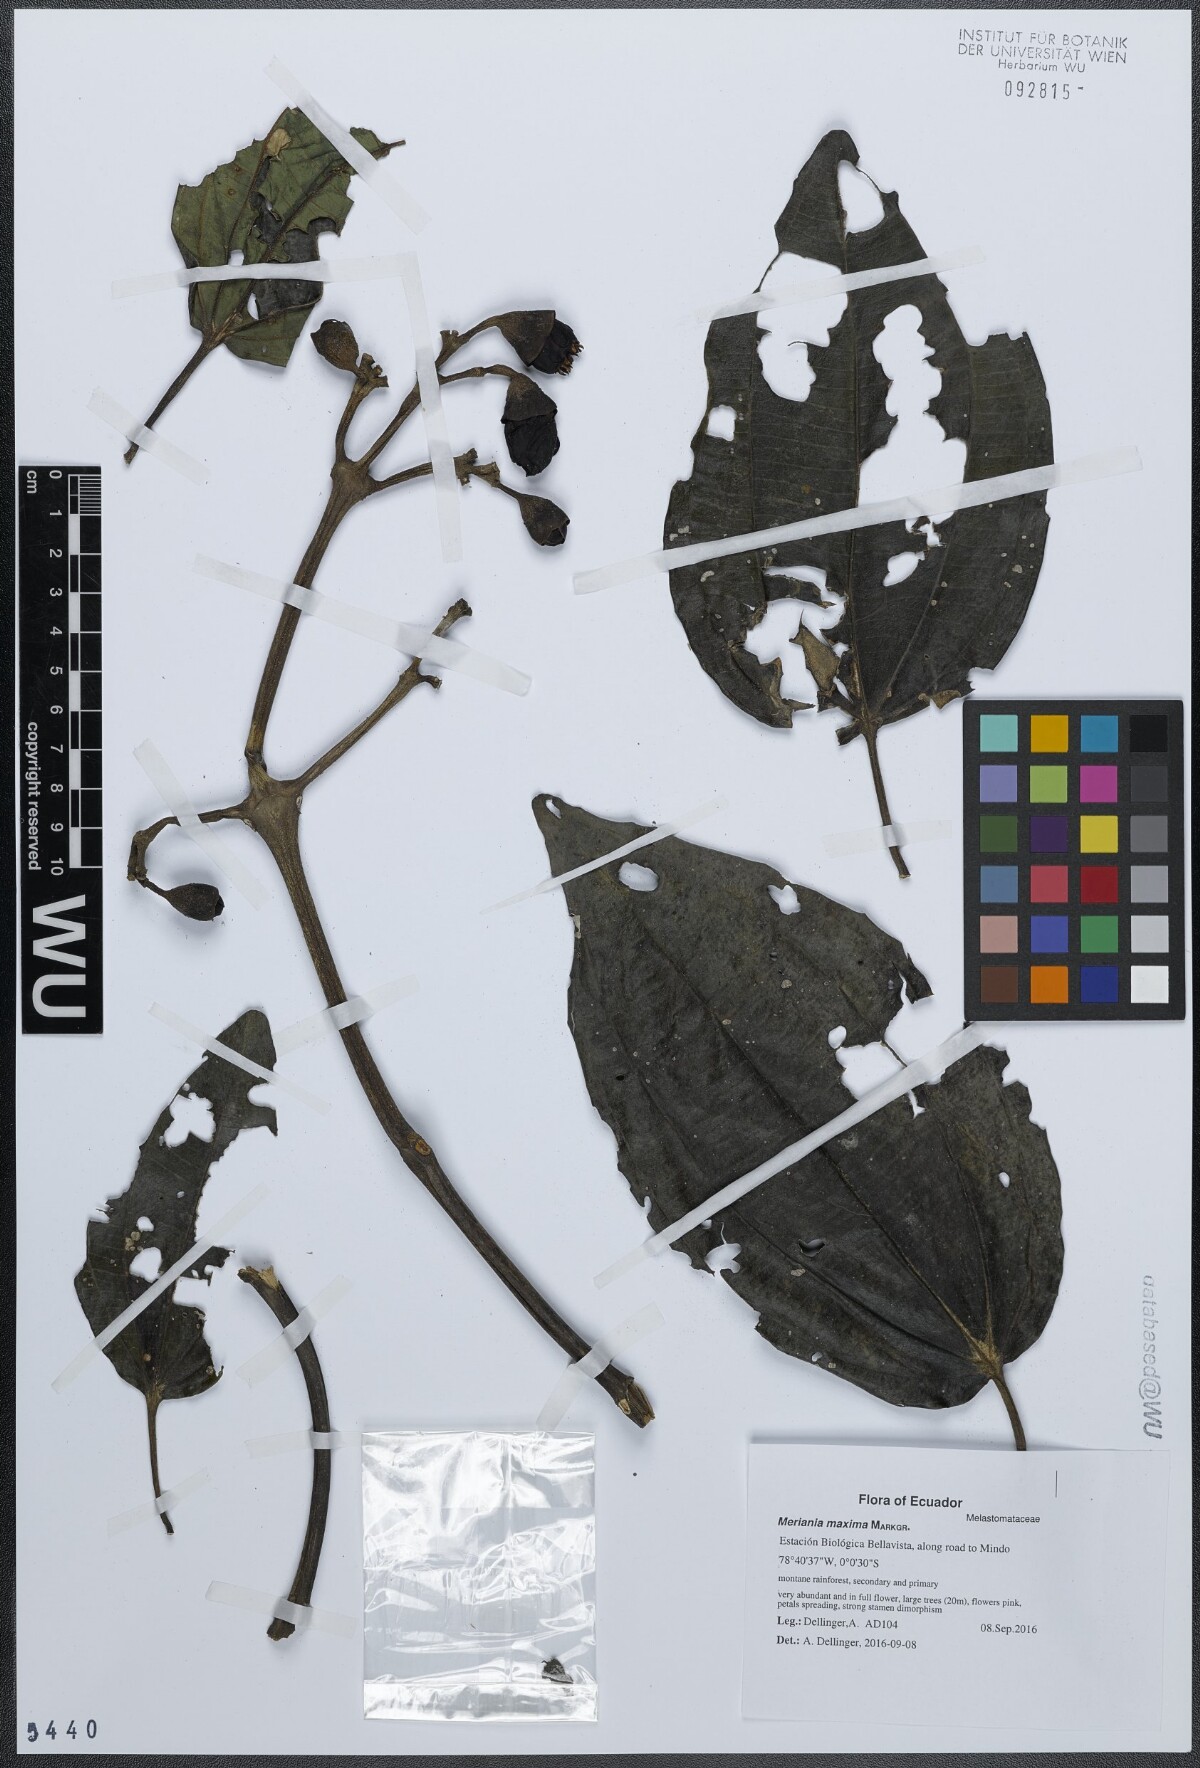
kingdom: Plantae
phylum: Tracheophyta
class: Magnoliopsida
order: Myrtales
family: Melastomataceae
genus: Meriania
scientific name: Meriania maxima
